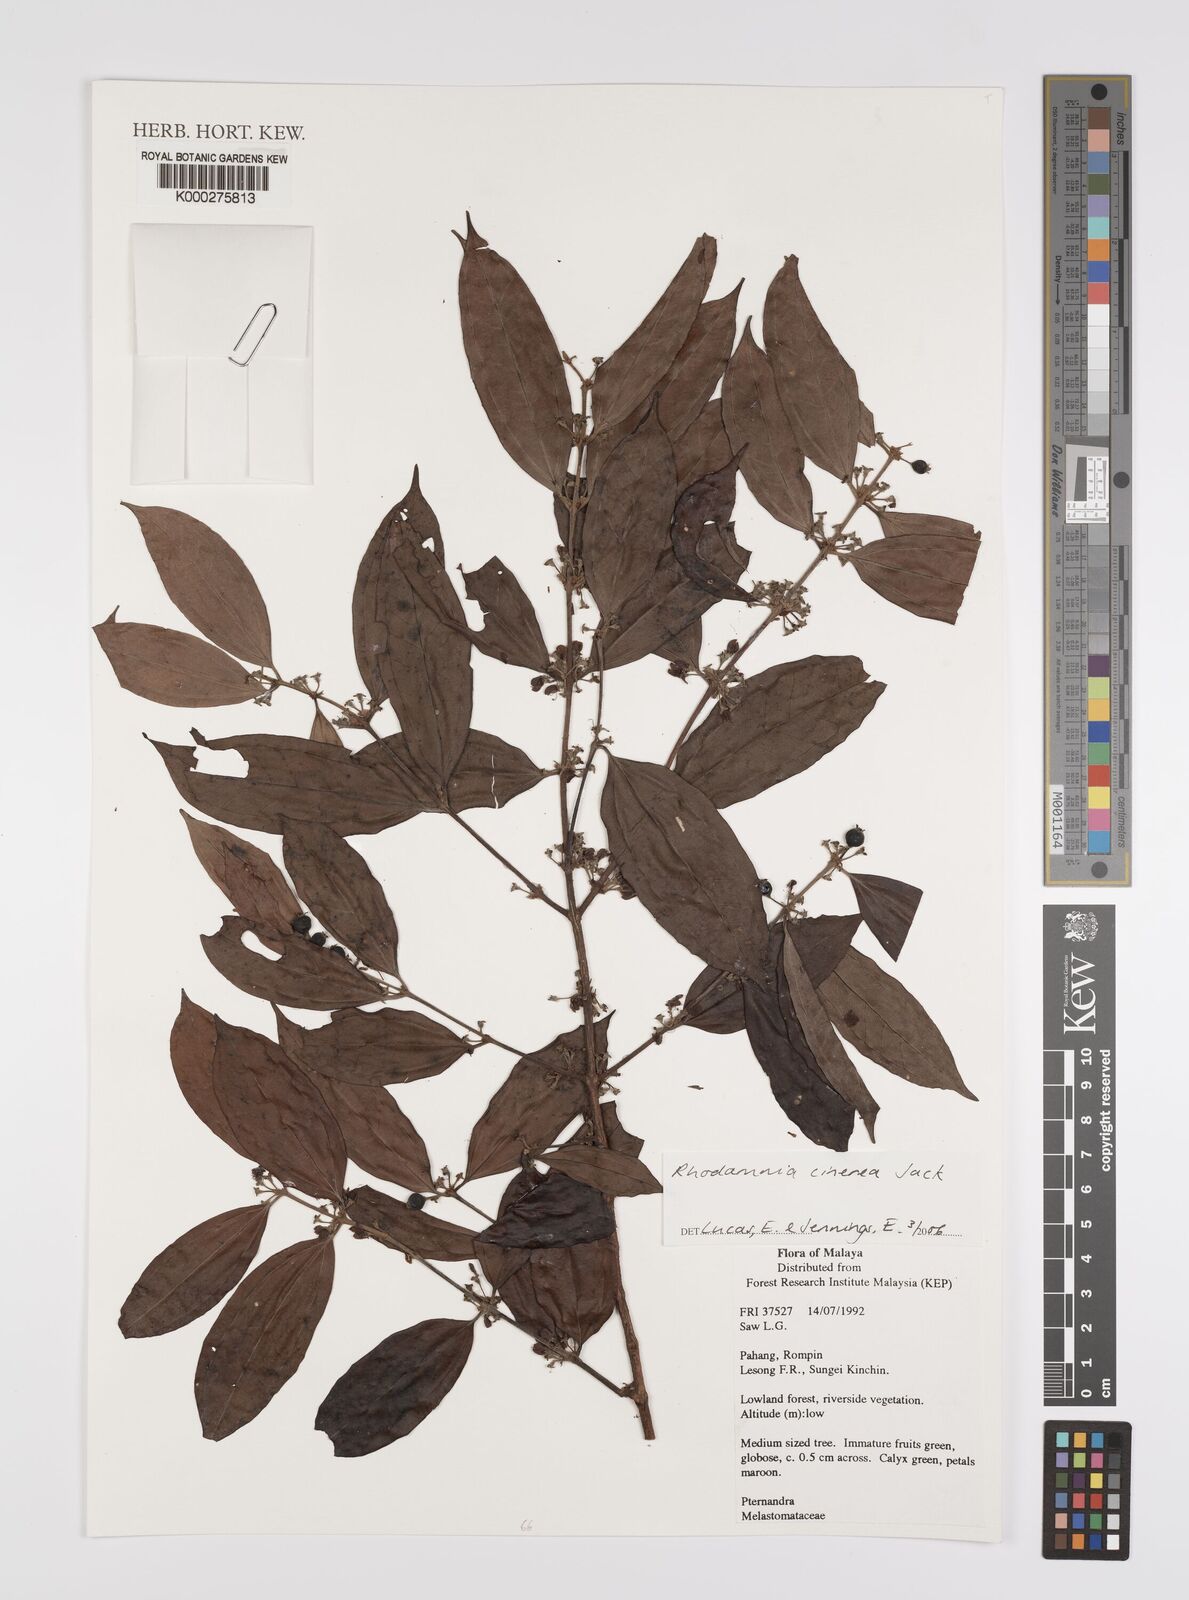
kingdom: Plantae
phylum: Tracheophyta
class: Magnoliopsida
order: Myrtales
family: Myrtaceae
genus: Rhodamnia
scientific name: Rhodamnia cinerea
